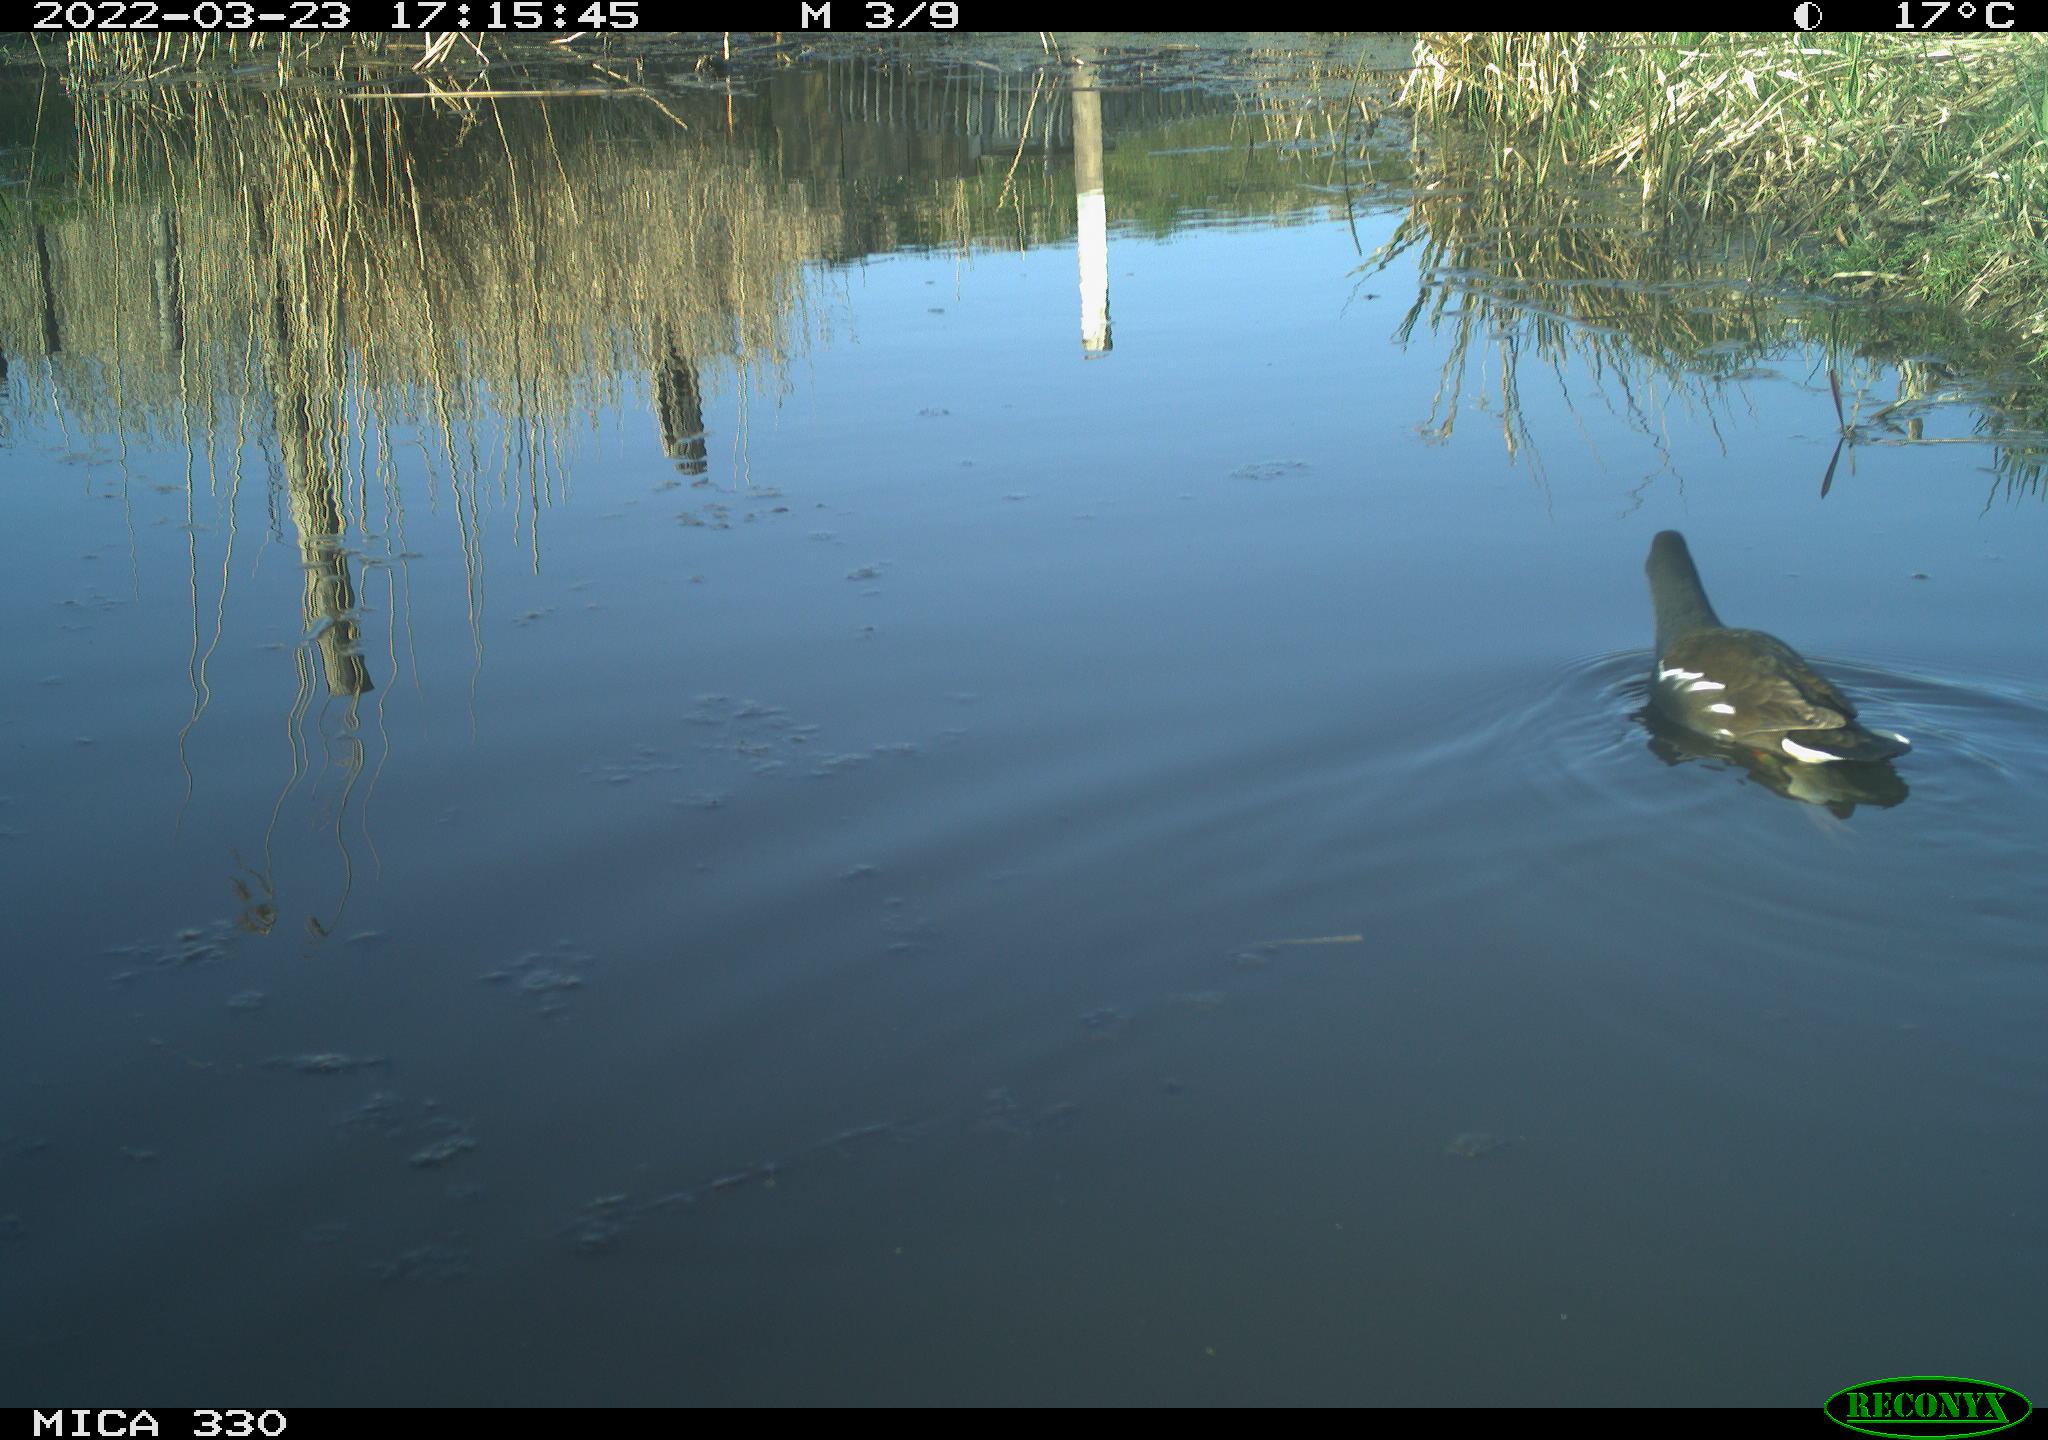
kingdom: Animalia
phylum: Chordata
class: Aves
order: Gruiformes
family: Rallidae
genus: Gallinula
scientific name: Gallinula chloropus
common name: Common moorhen
